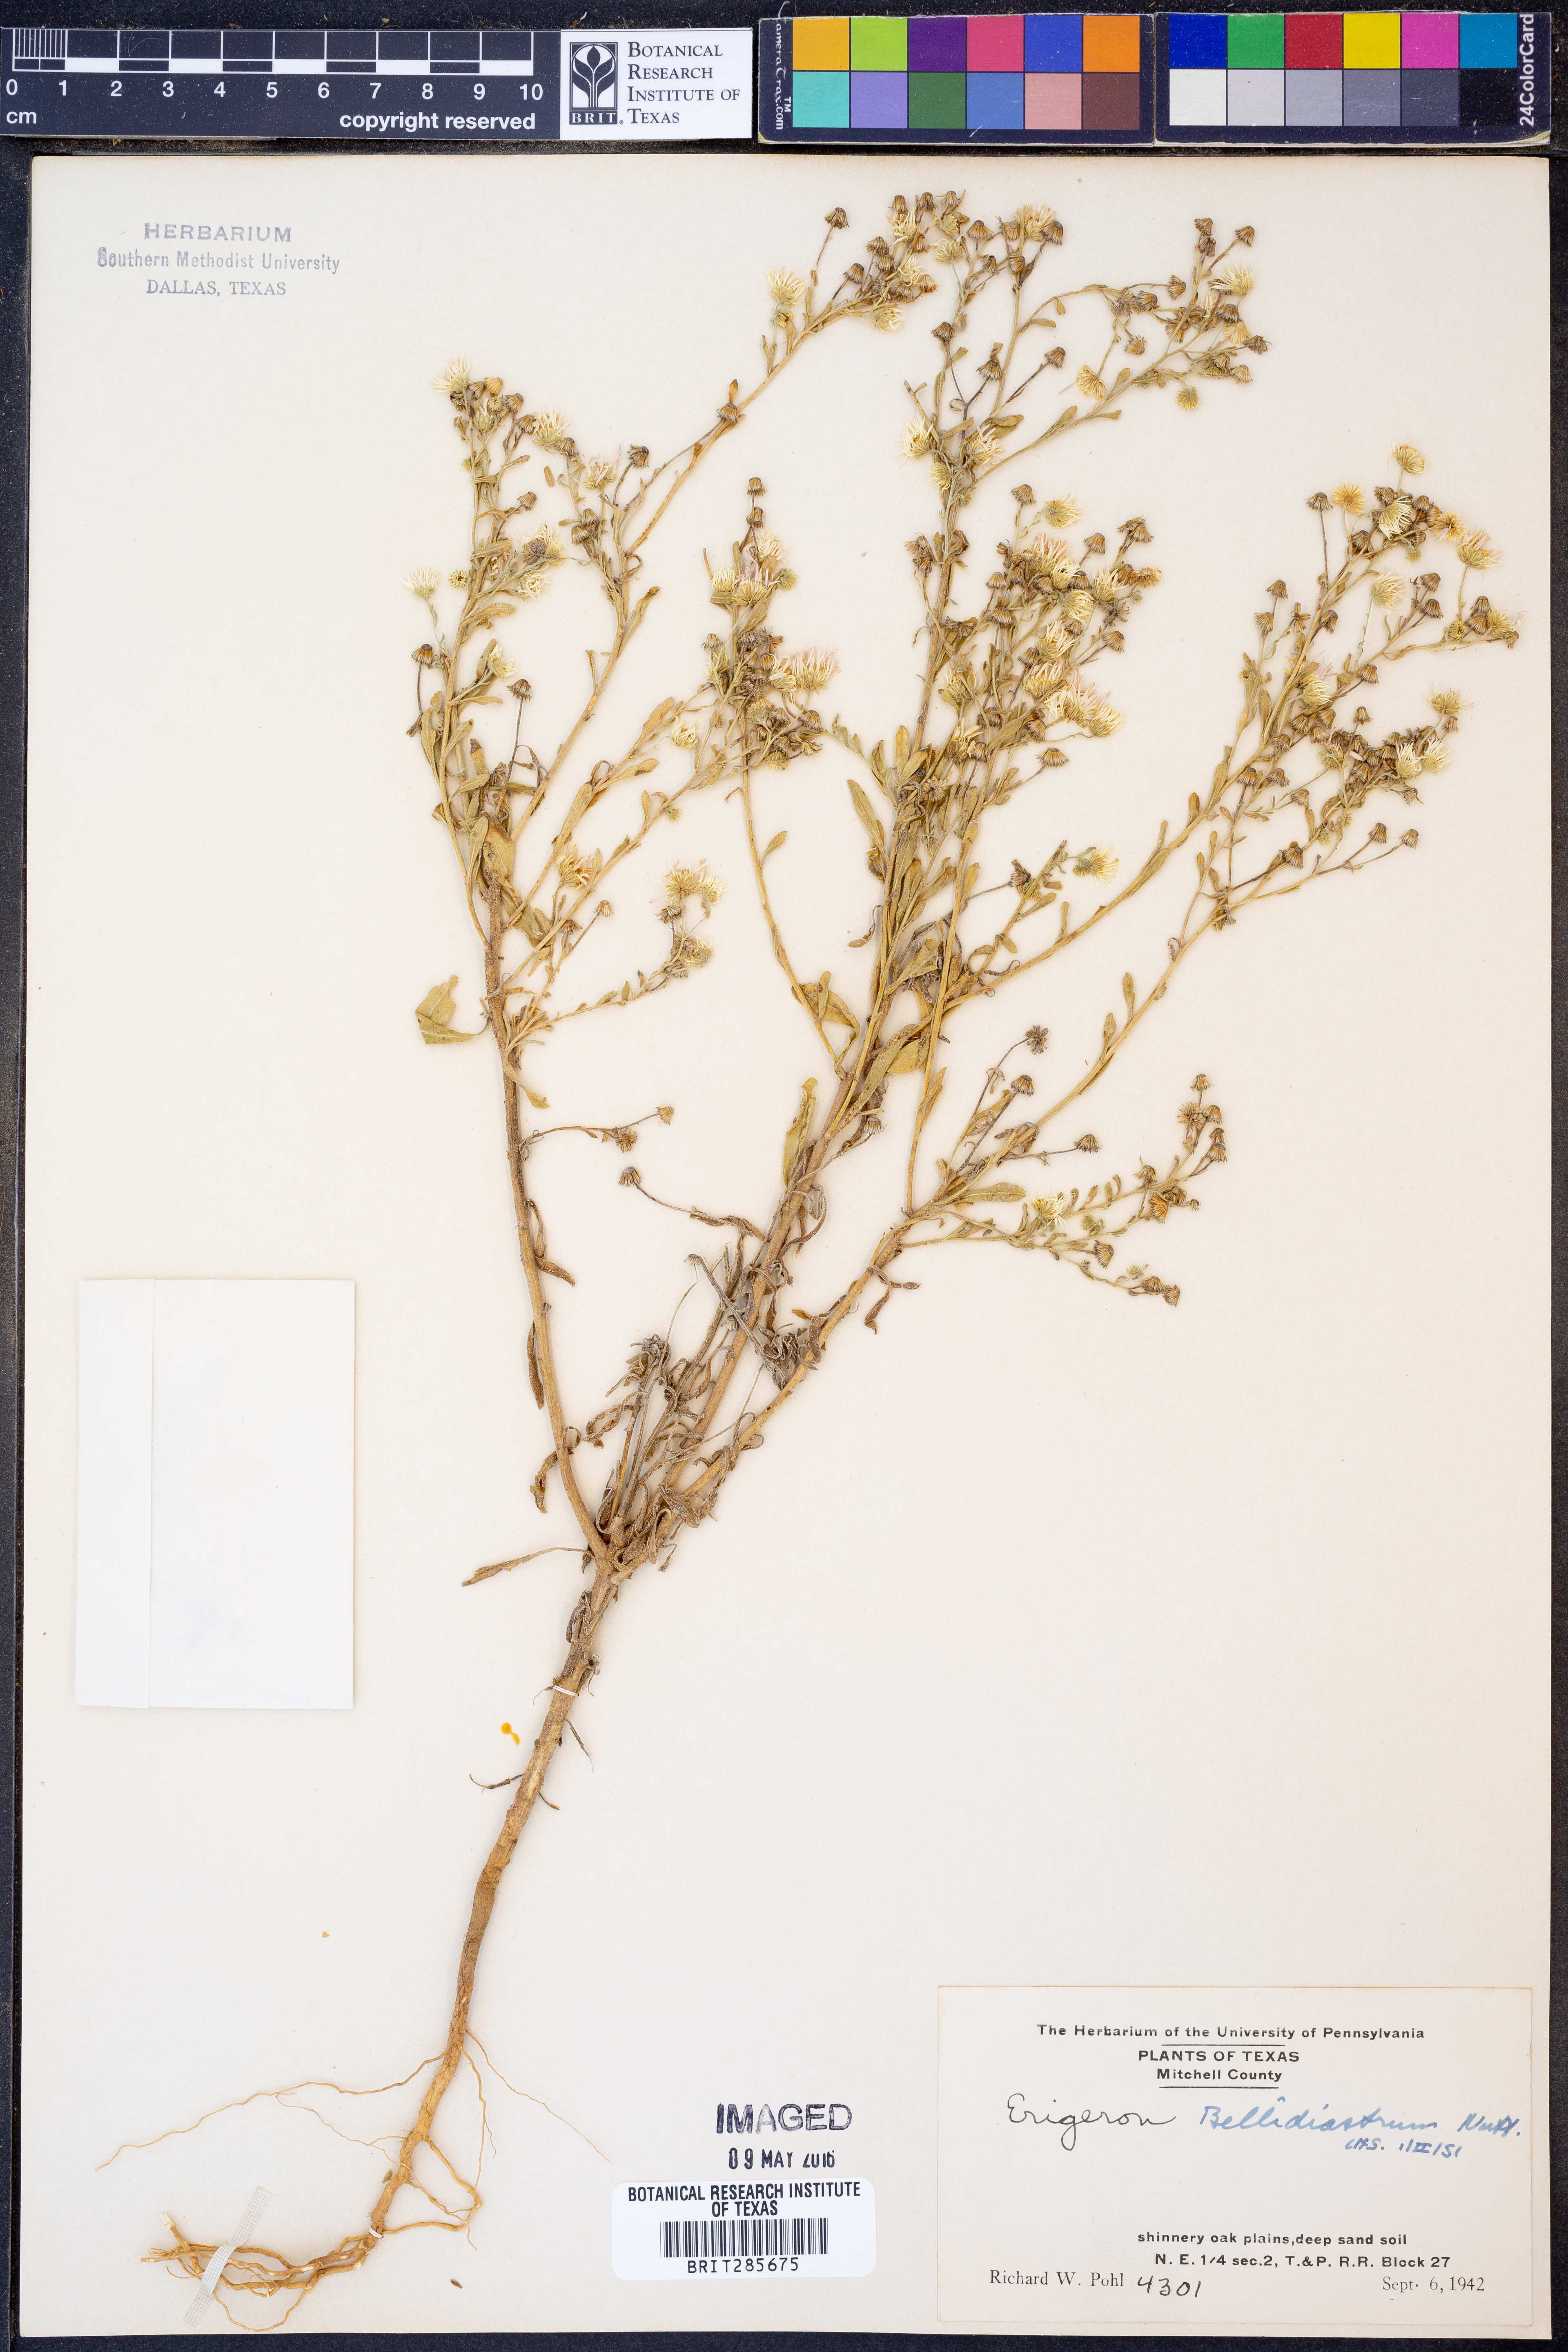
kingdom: Plantae
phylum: Tracheophyta
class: Magnoliopsida
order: Asterales
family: Asteraceae
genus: Erigeron
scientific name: Erigeron bellidiastrum
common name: Sand fleabane
